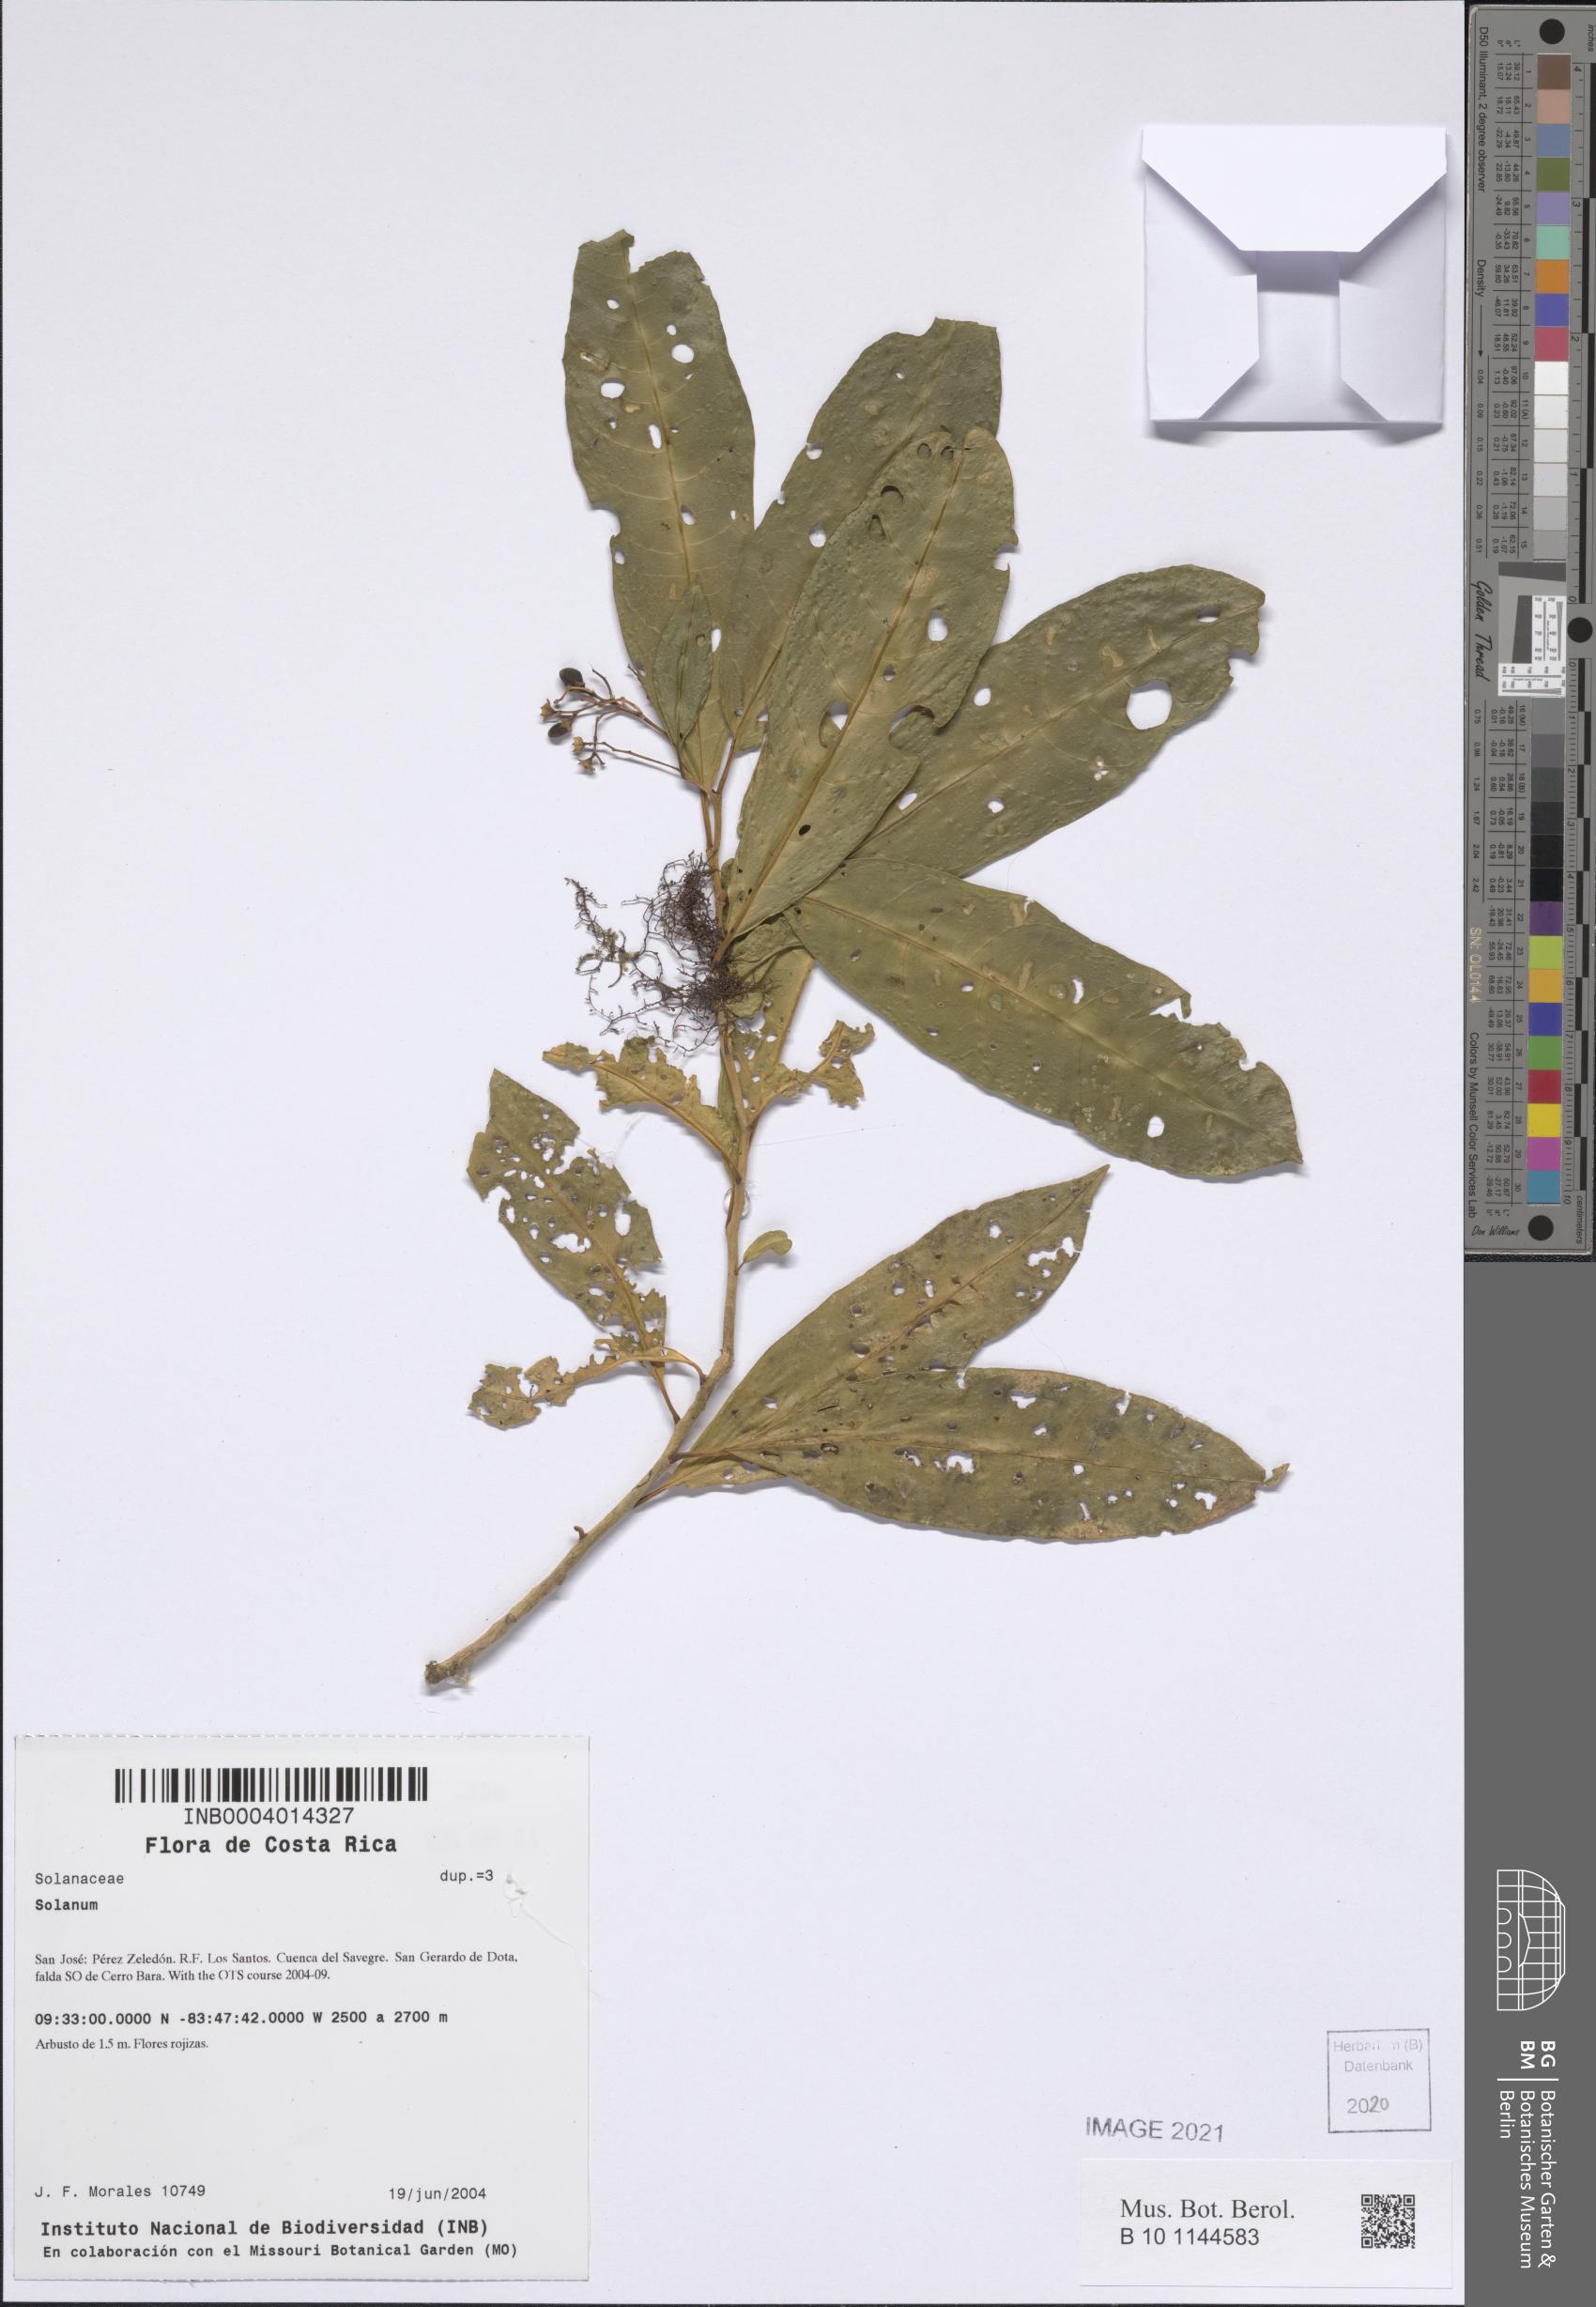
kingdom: Plantae
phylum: Tracheophyta
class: Magnoliopsida
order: Solanales
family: Solanaceae
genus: Cestrum
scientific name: Cestrum
